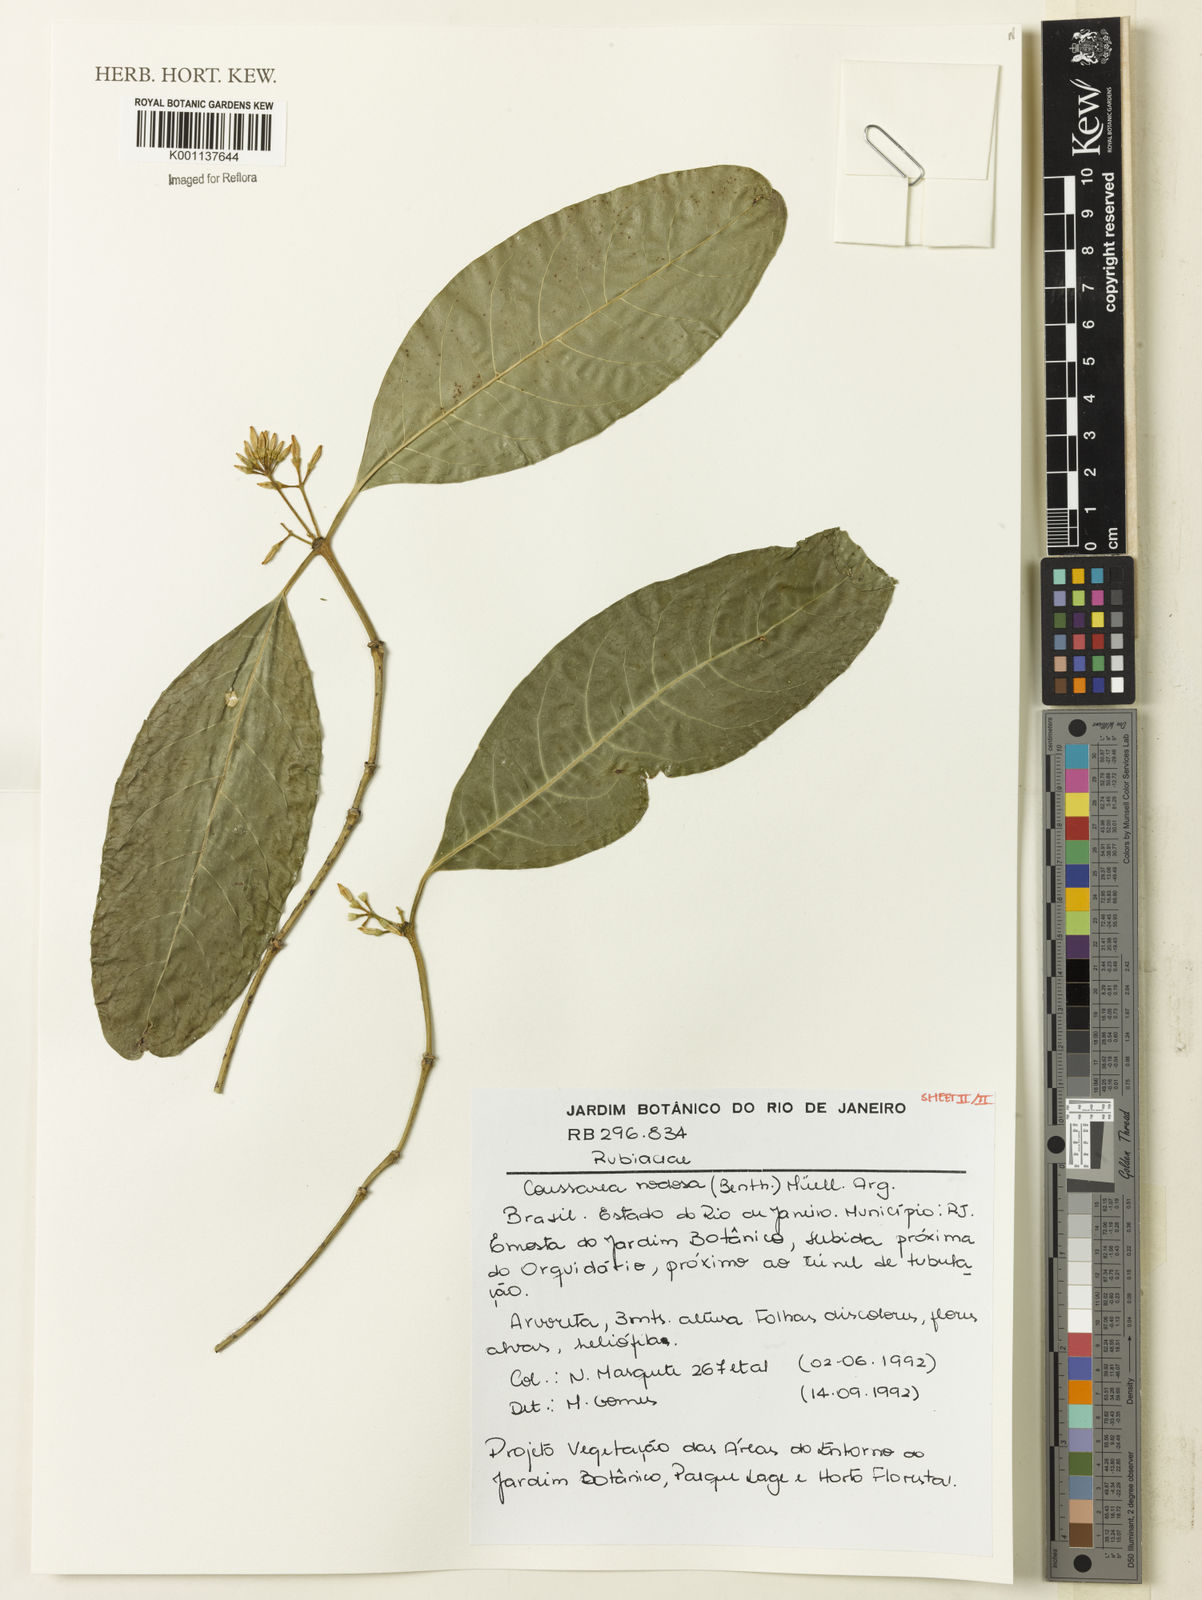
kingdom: Plantae
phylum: Tracheophyta
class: Magnoliopsida
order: Gentianales
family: Rubiaceae
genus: Coussarea
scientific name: Coussarea
